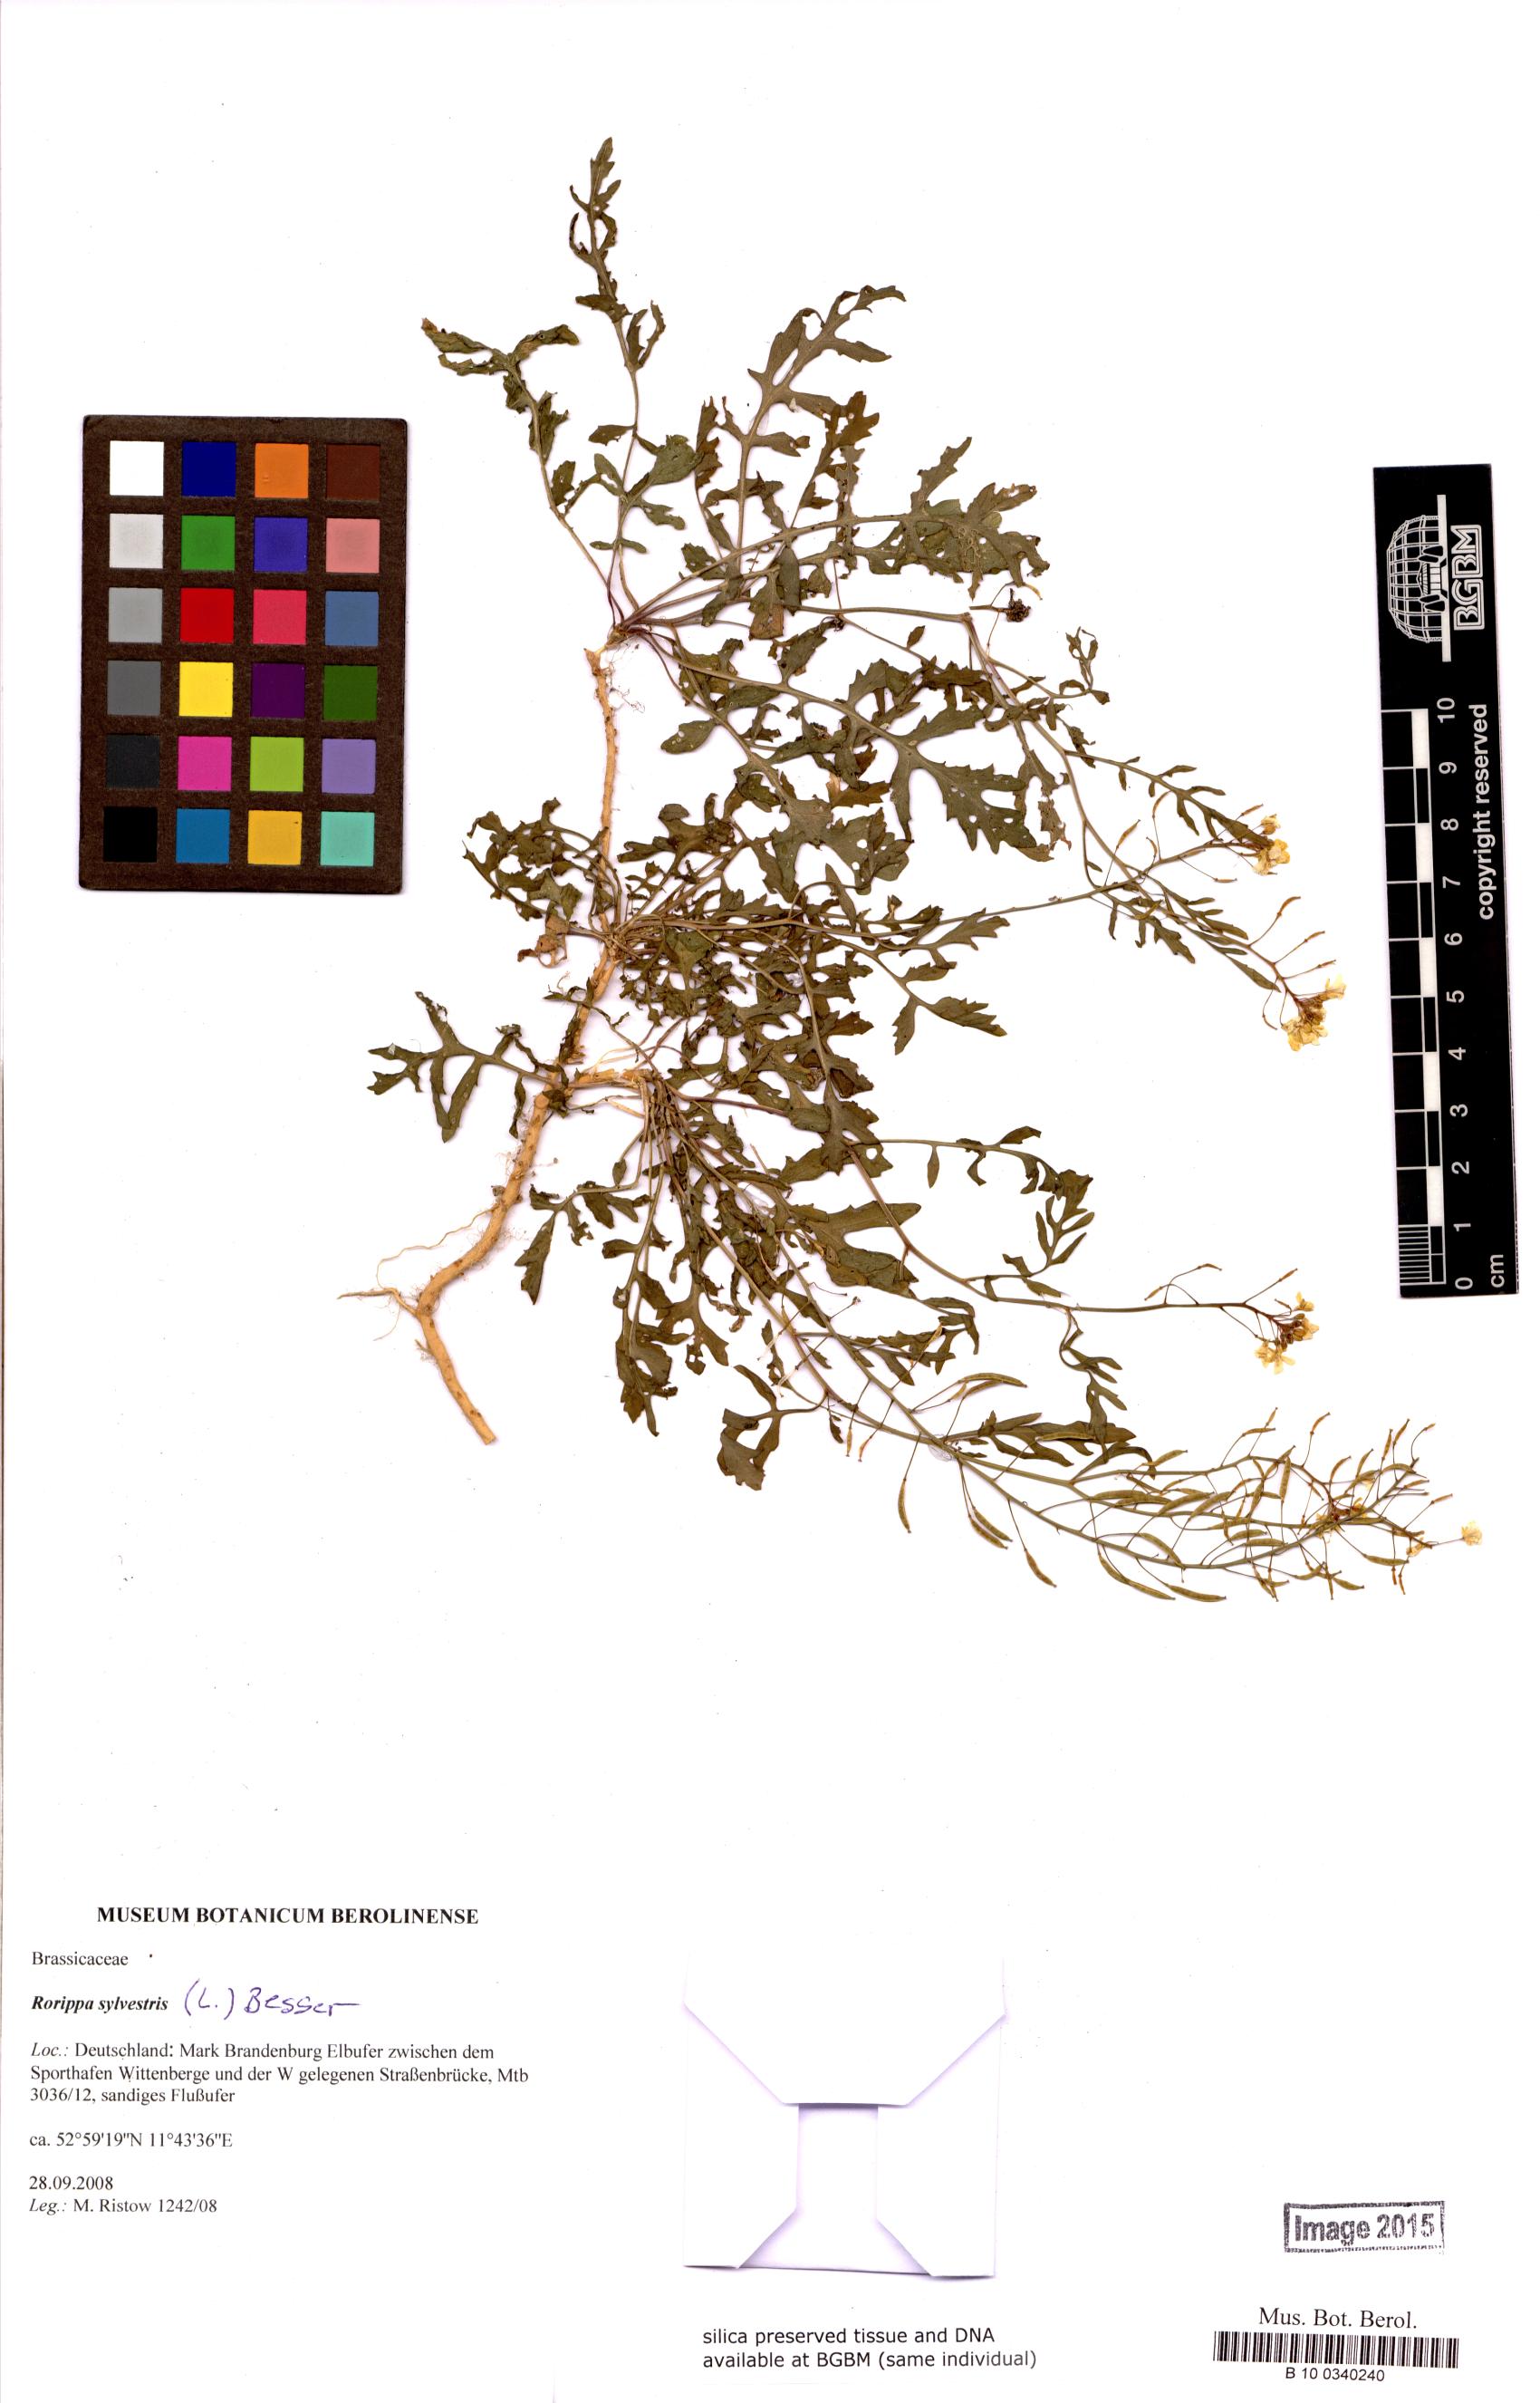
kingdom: Plantae
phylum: Tracheophyta
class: Magnoliopsida
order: Brassicales
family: Brassicaceae
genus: Rorippa
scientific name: Rorippa sylvestris
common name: Creeping yellowcress
